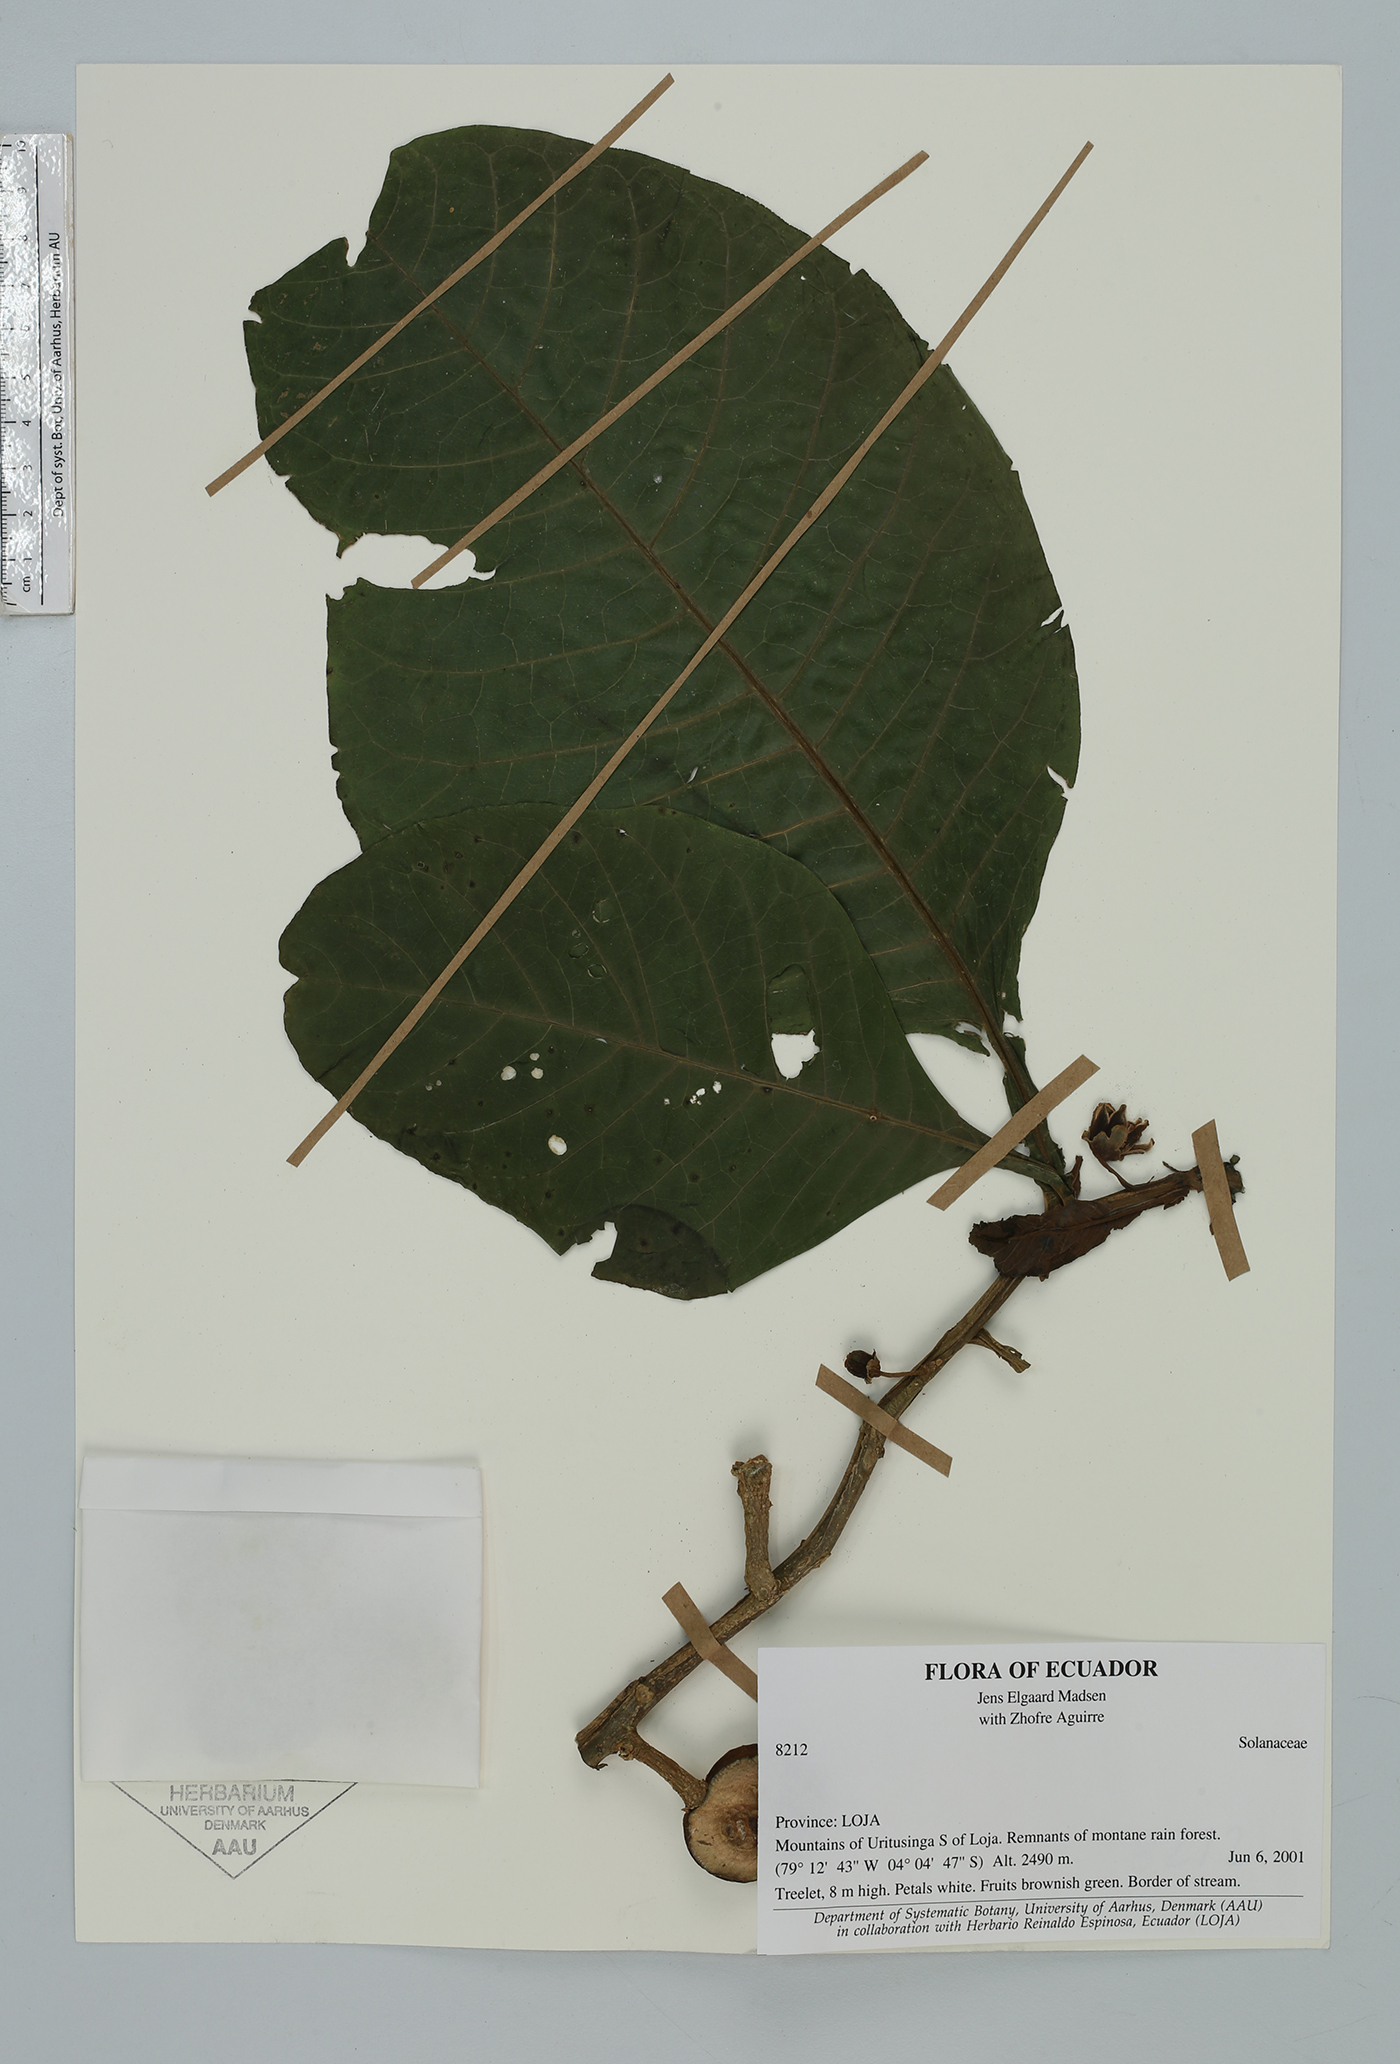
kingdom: Plantae
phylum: Tracheophyta
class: Magnoliopsida
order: Solanales
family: Solanaceae
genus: Solanum
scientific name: Solanum
